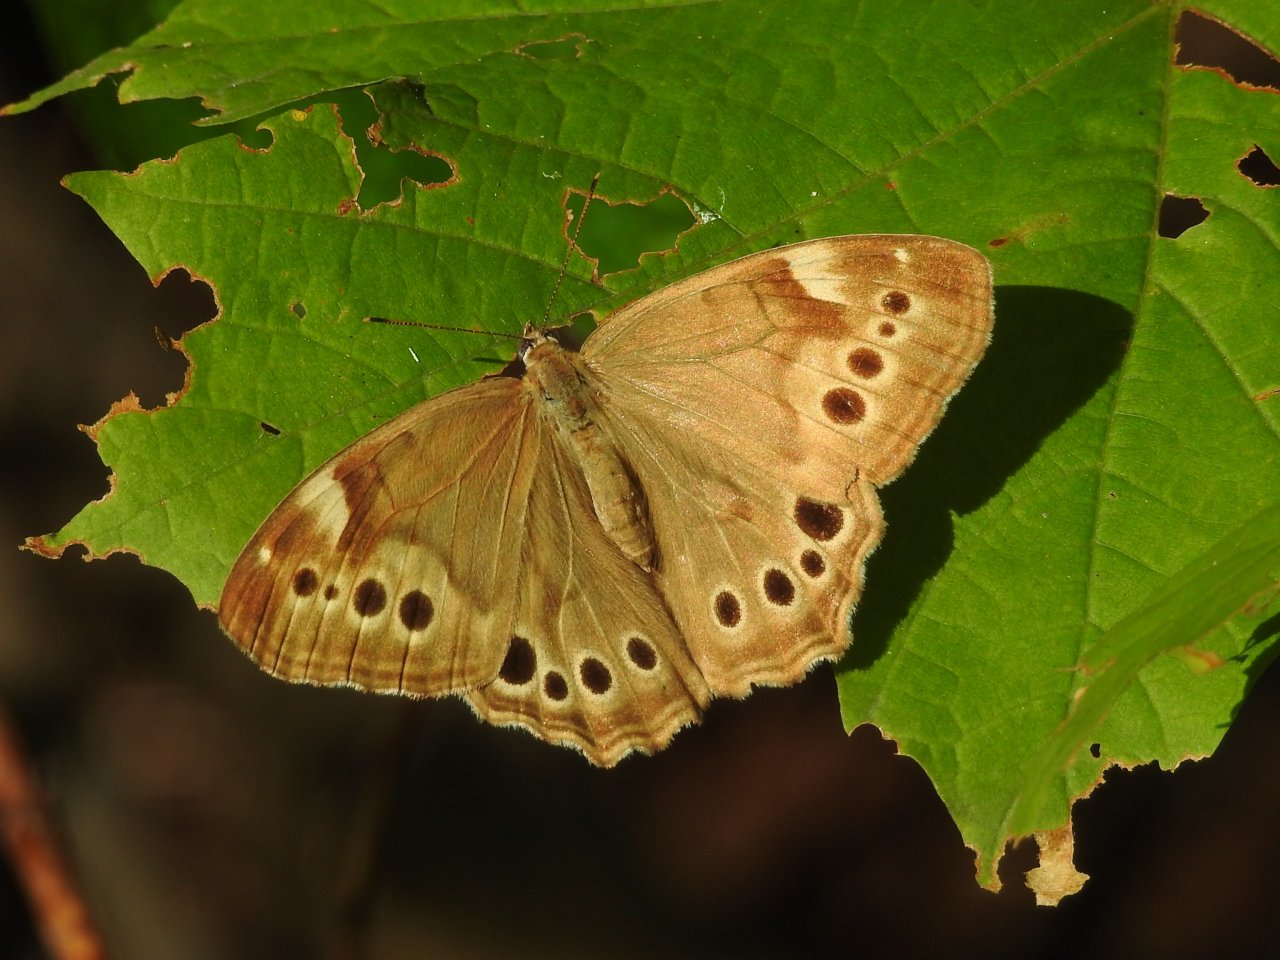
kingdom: Animalia
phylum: Arthropoda
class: Insecta
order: Lepidoptera
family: Nymphalidae
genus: Lethe
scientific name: Lethe anthedon
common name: Northern Pearly-Eye
